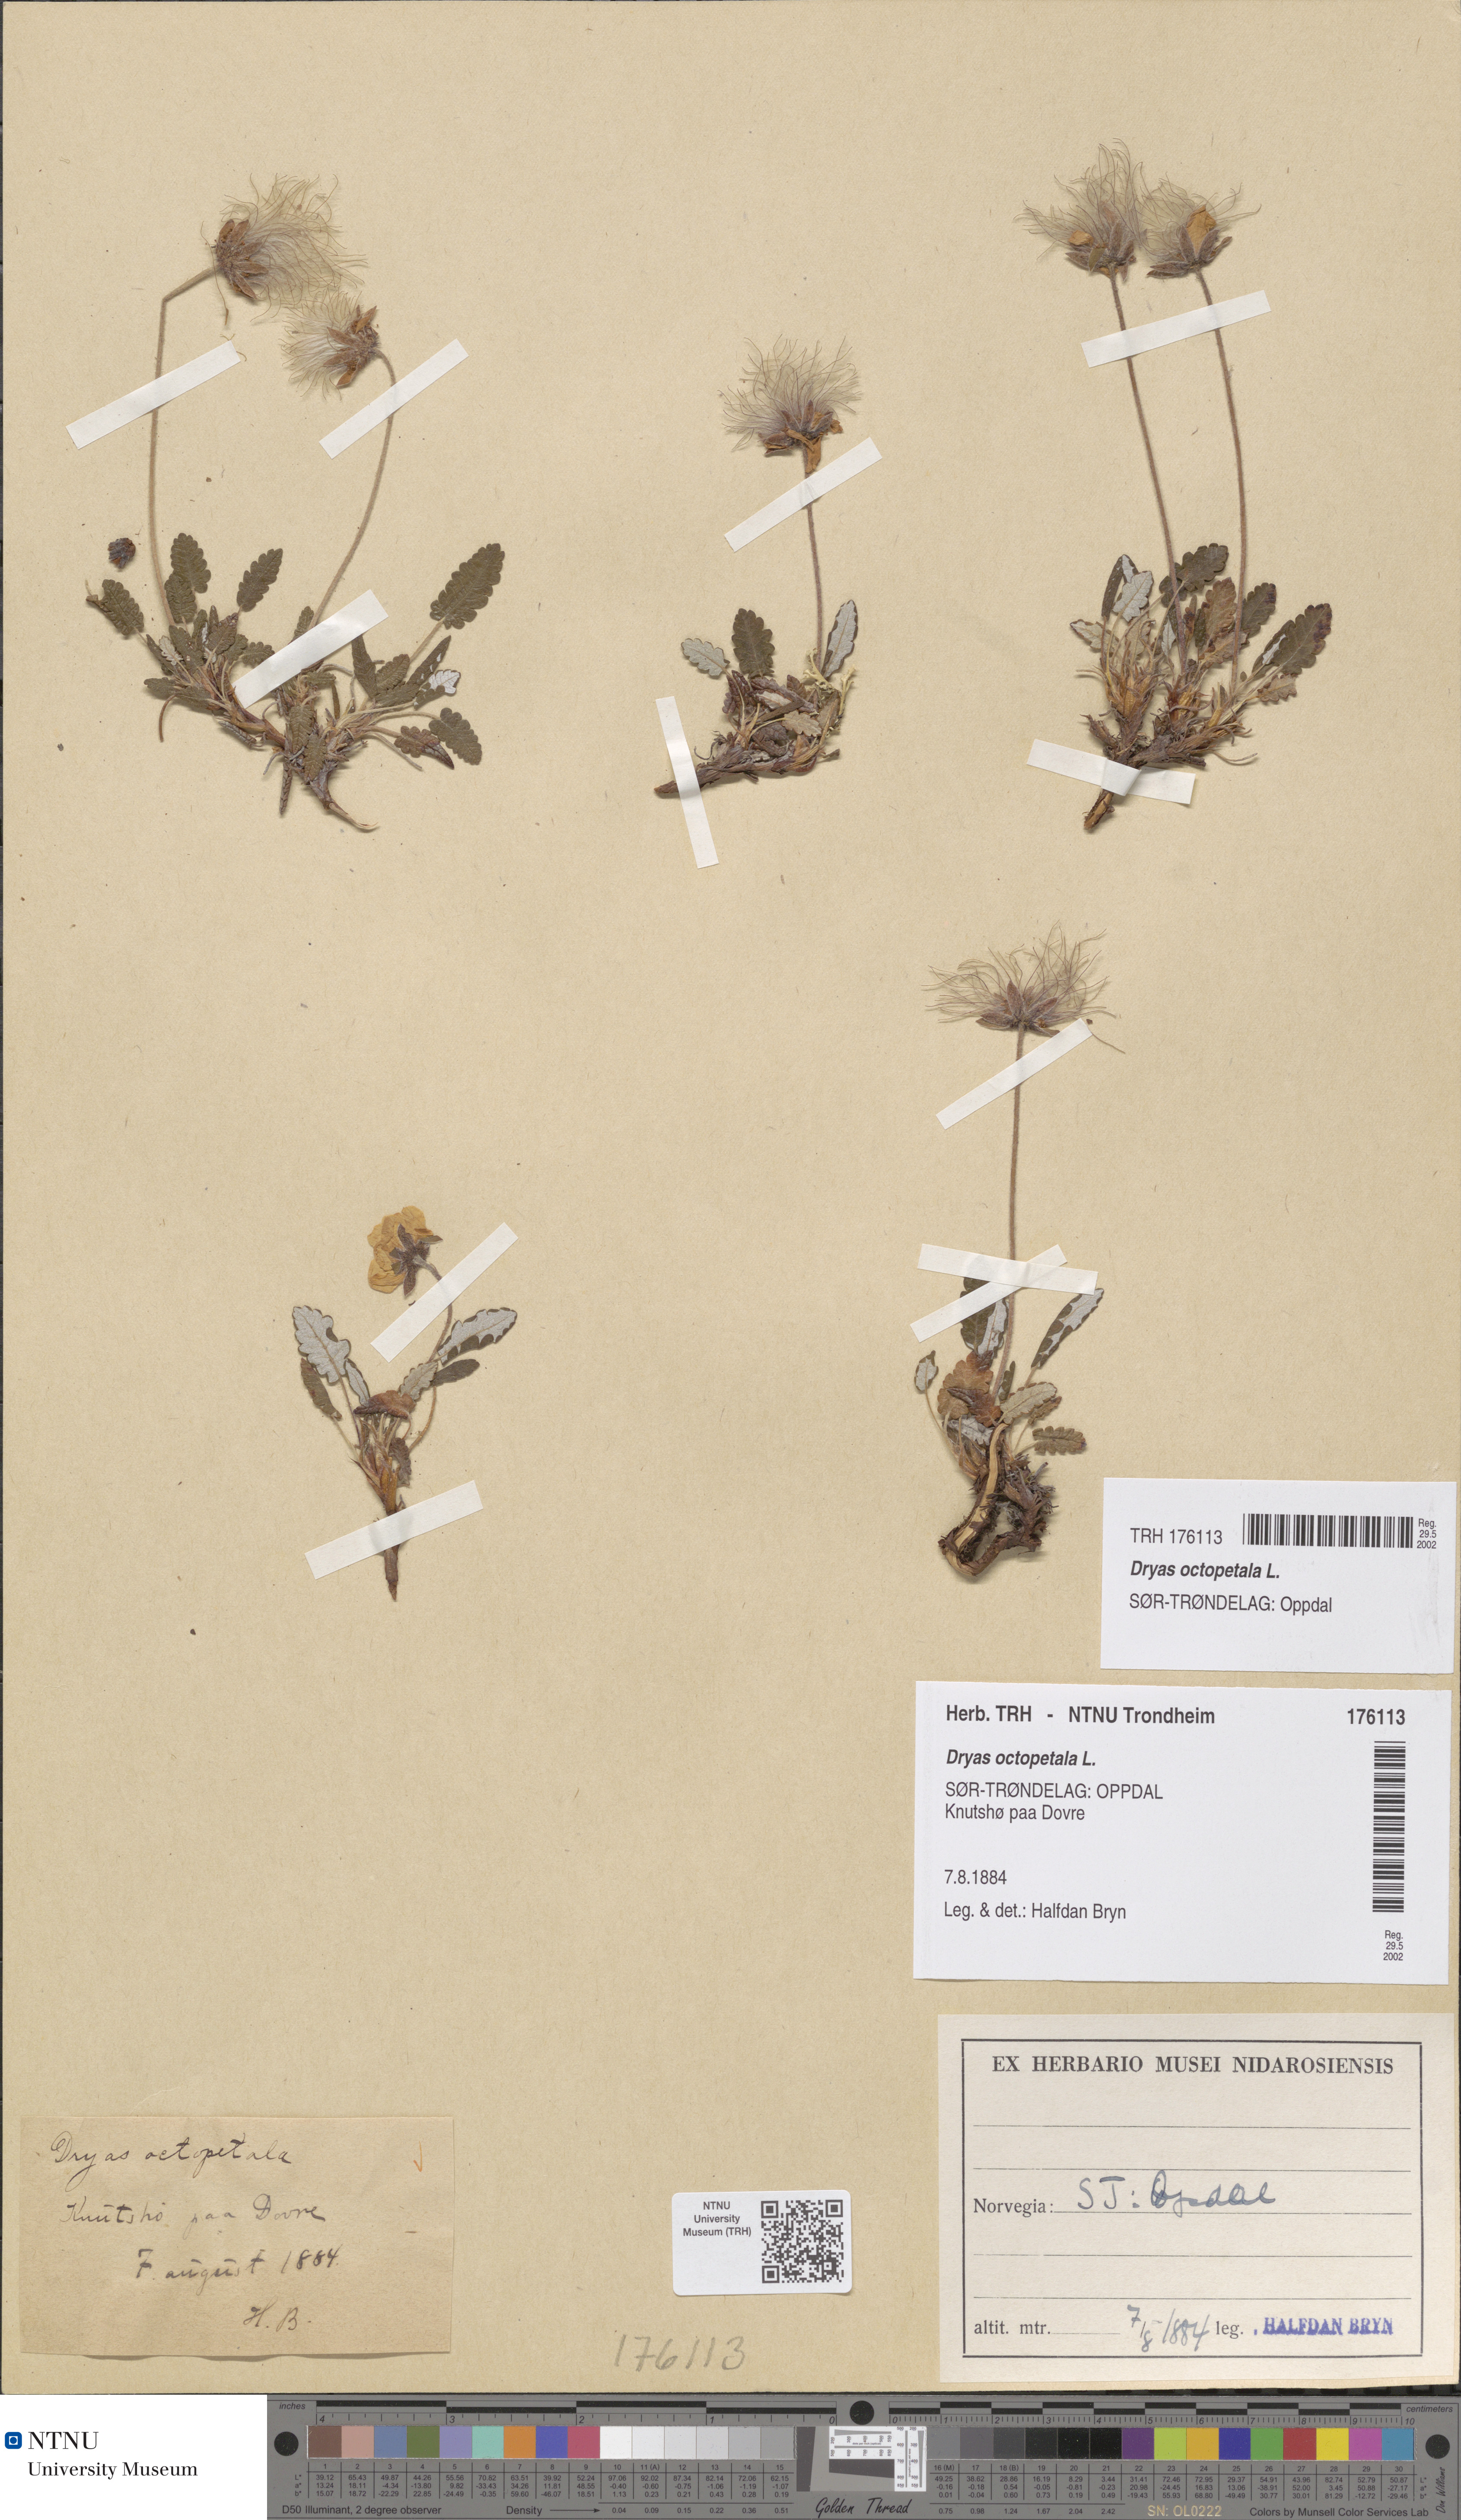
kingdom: Plantae
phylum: Tracheophyta
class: Magnoliopsida
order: Rosales
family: Rosaceae
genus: Dryas
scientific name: Dryas octopetala
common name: Eight-petal mountain-avens
